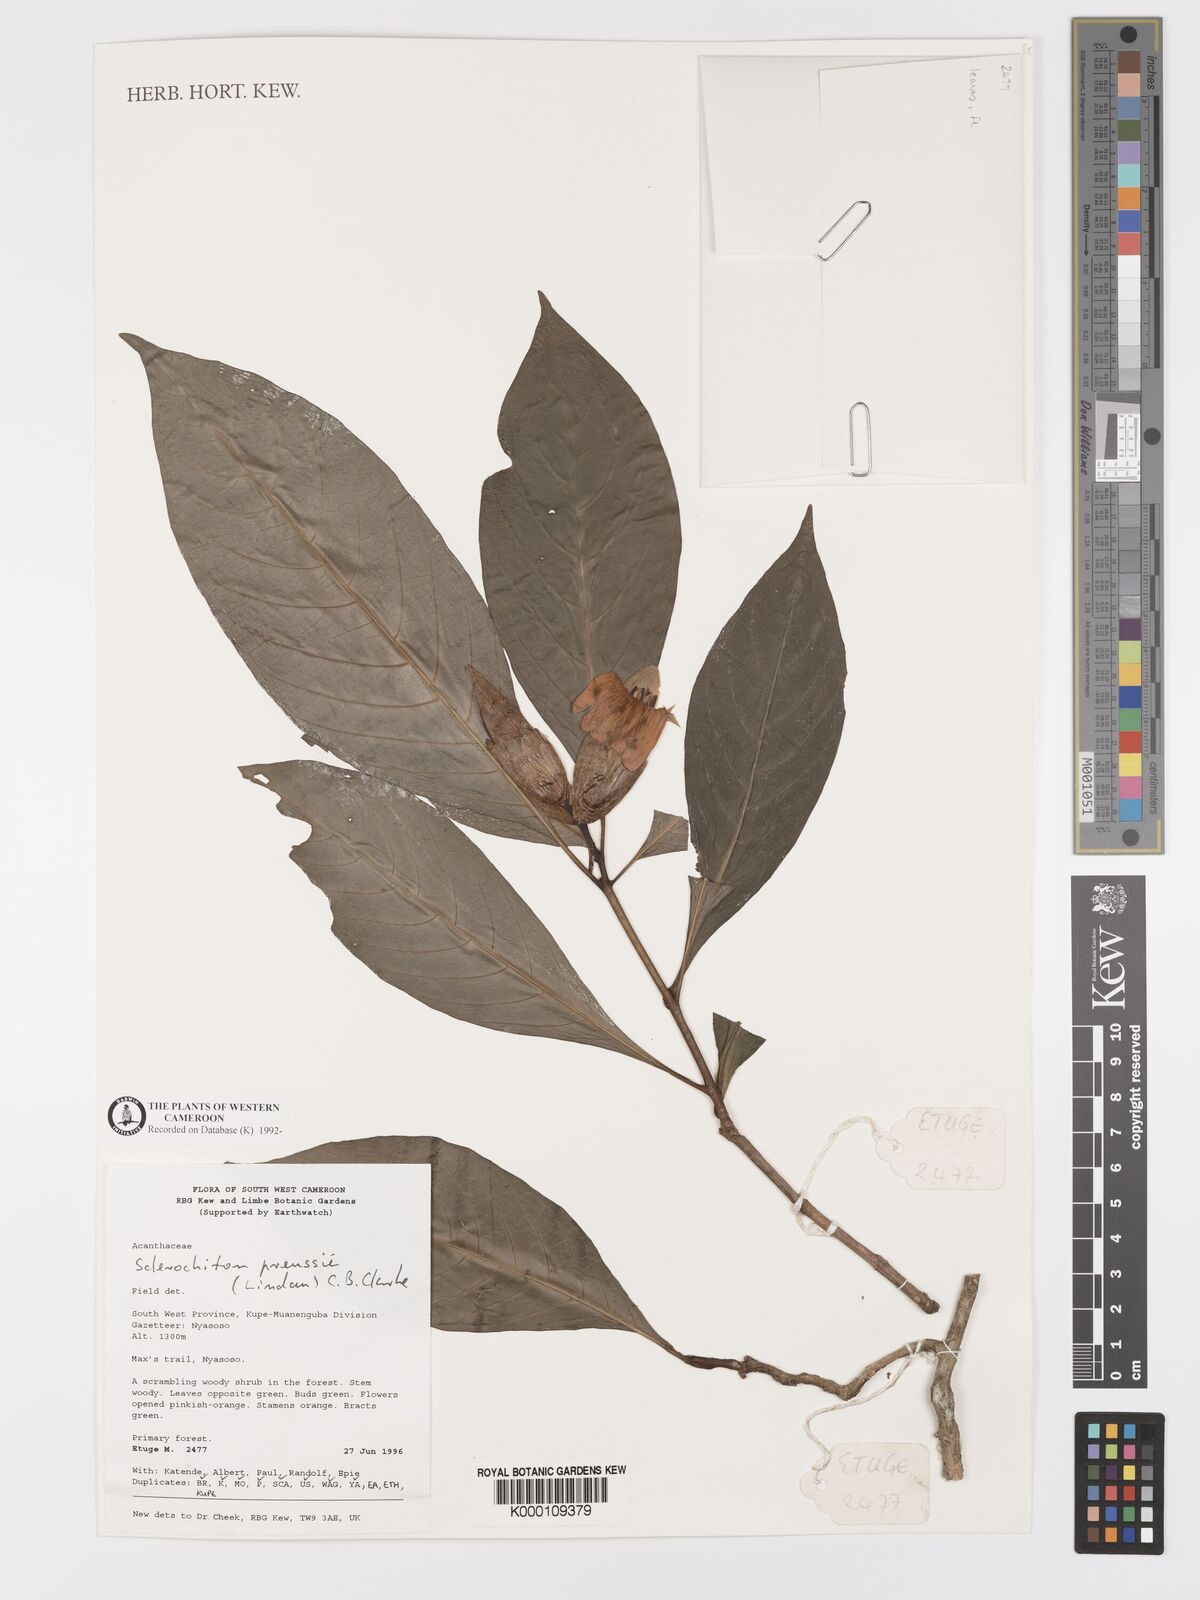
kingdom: Plantae
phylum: Tracheophyta
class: Magnoliopsida
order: Lamiales
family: Acanthaceae
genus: Sclerochiton
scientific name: Sclerochiton preussii
